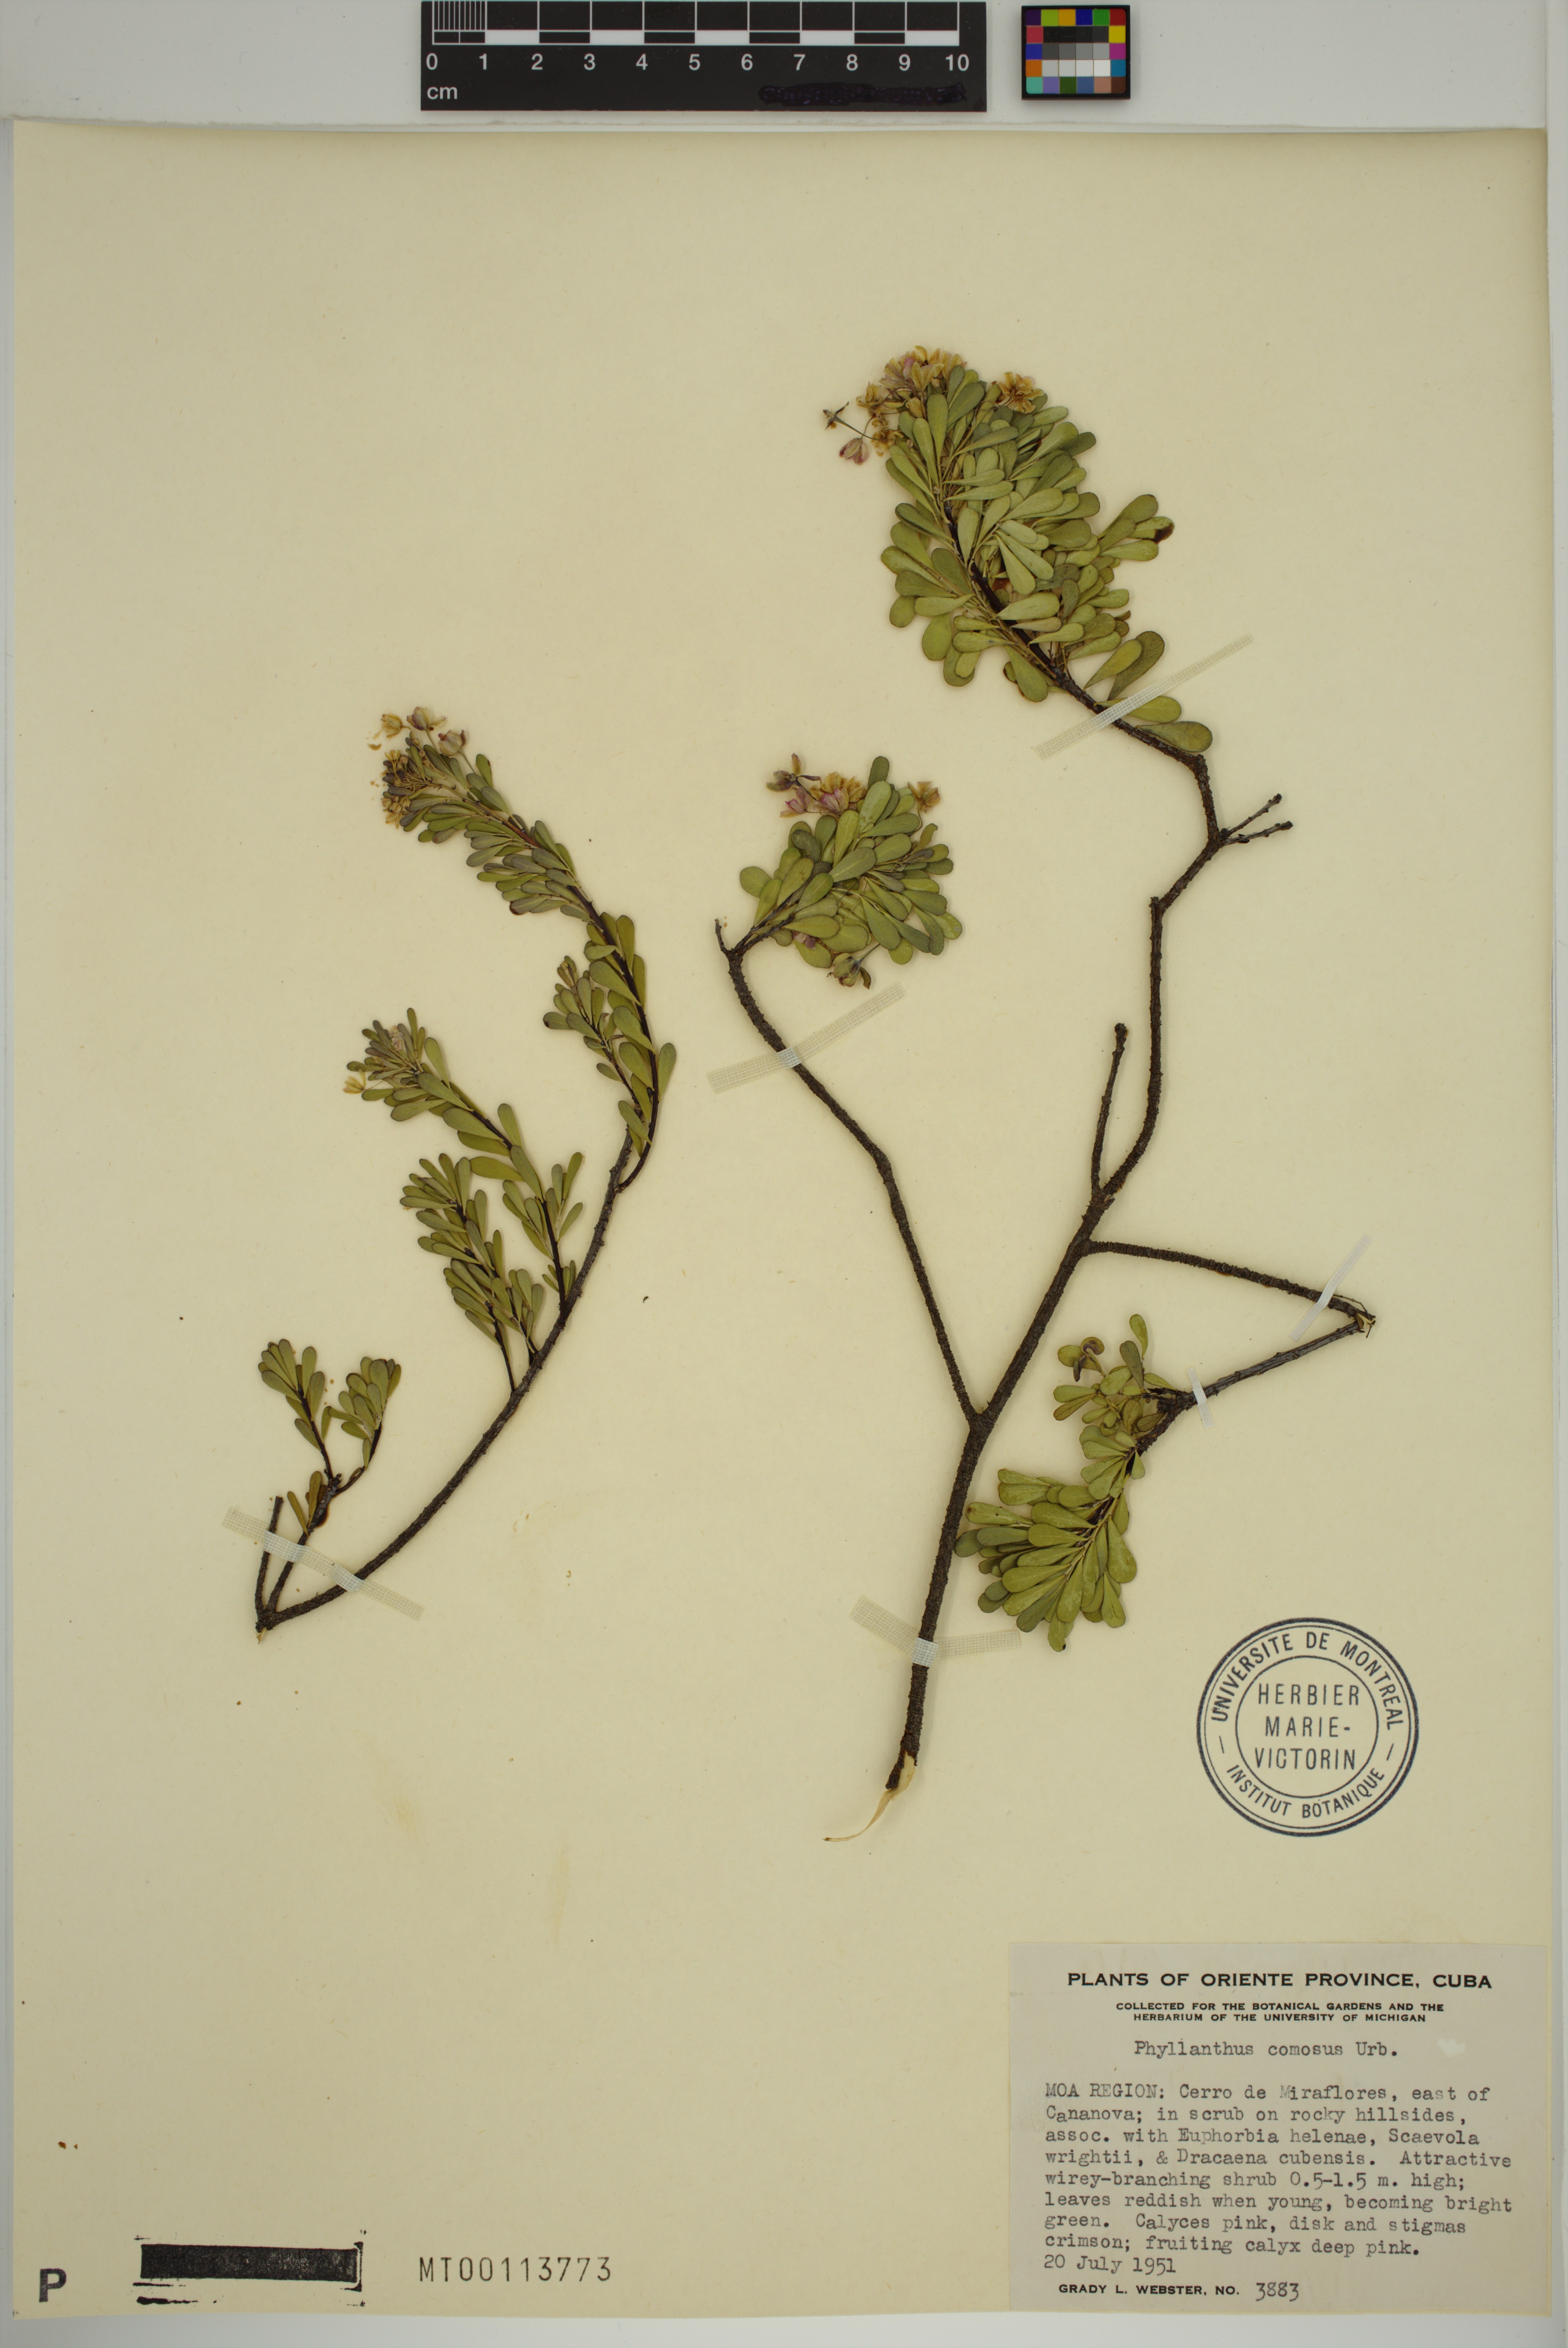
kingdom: Plantae
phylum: Tracheophyta
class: Magnoliopsida
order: Malpighiales
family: Phyllanthaceae
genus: Phyllanthus
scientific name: Phyllanthus comosus
